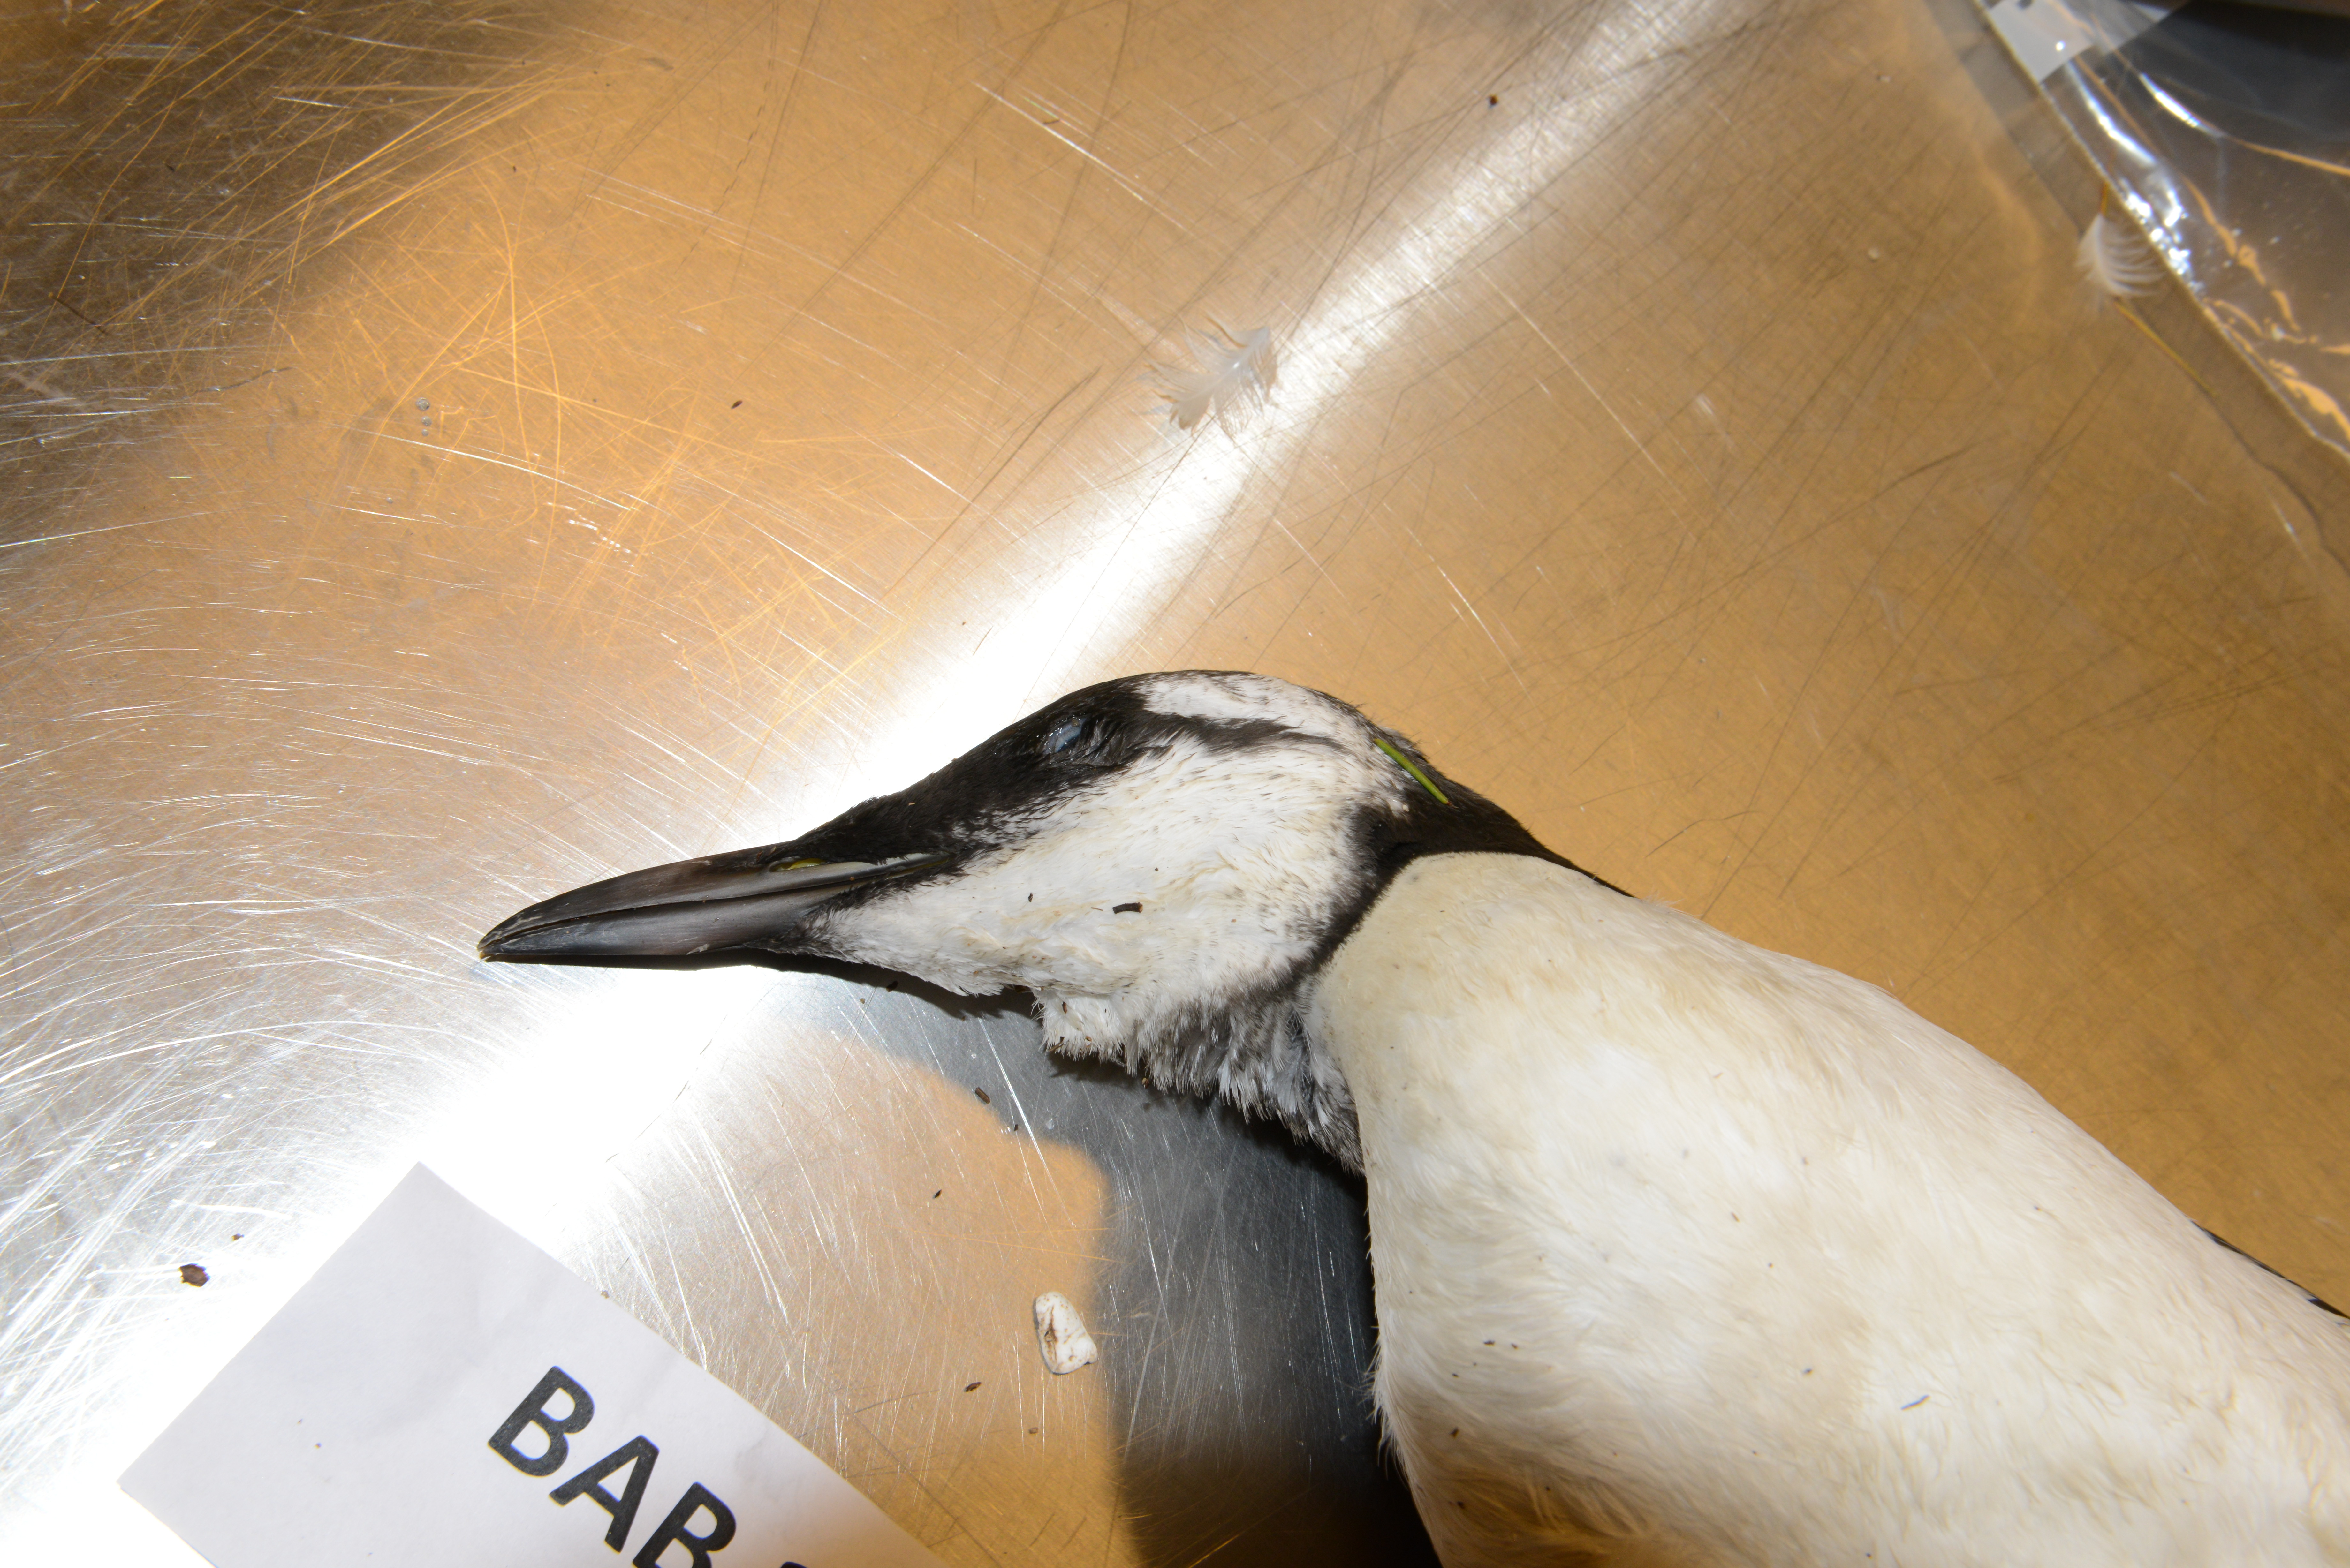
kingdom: Animalia
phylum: Chordata
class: Aves
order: Charadriiformes
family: Alcidae
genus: Uria
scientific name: Uria aalge
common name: Common murre
